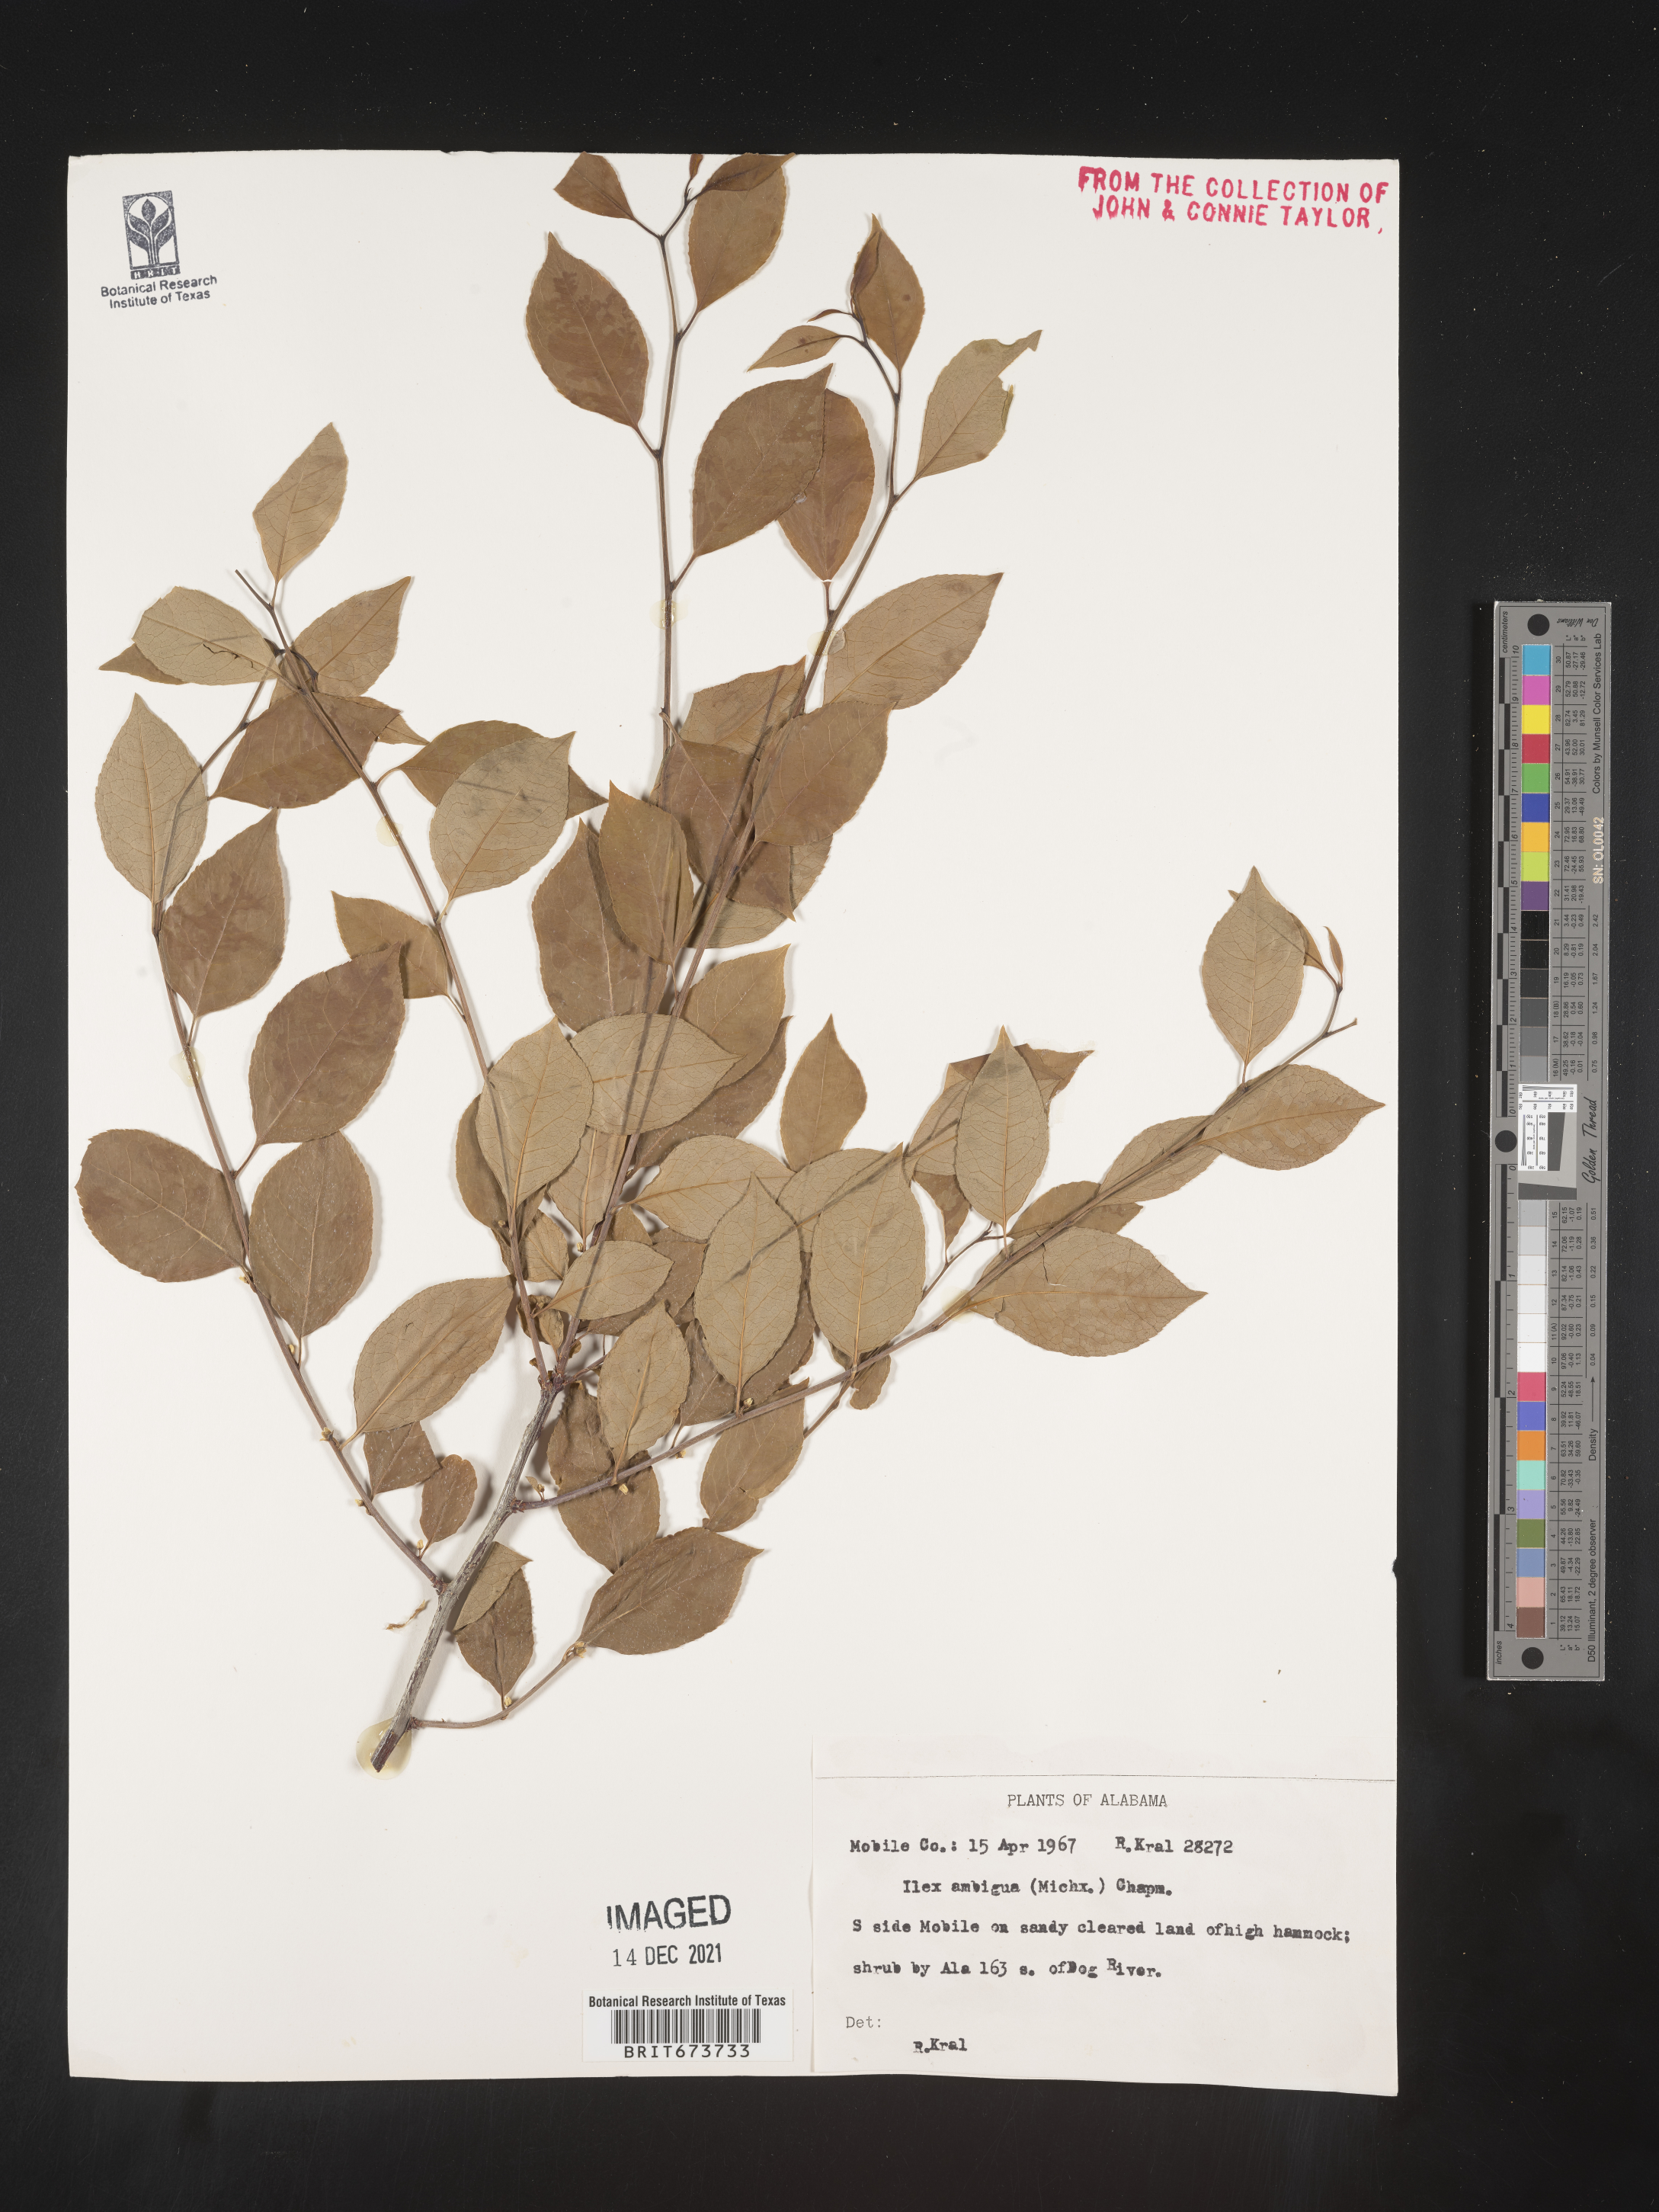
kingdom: Plantae
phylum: Tracheophyta
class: Magnoliopsida
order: Aquifoliales
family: Aquifoliaceae
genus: Ilex
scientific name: Ilex ambigua
